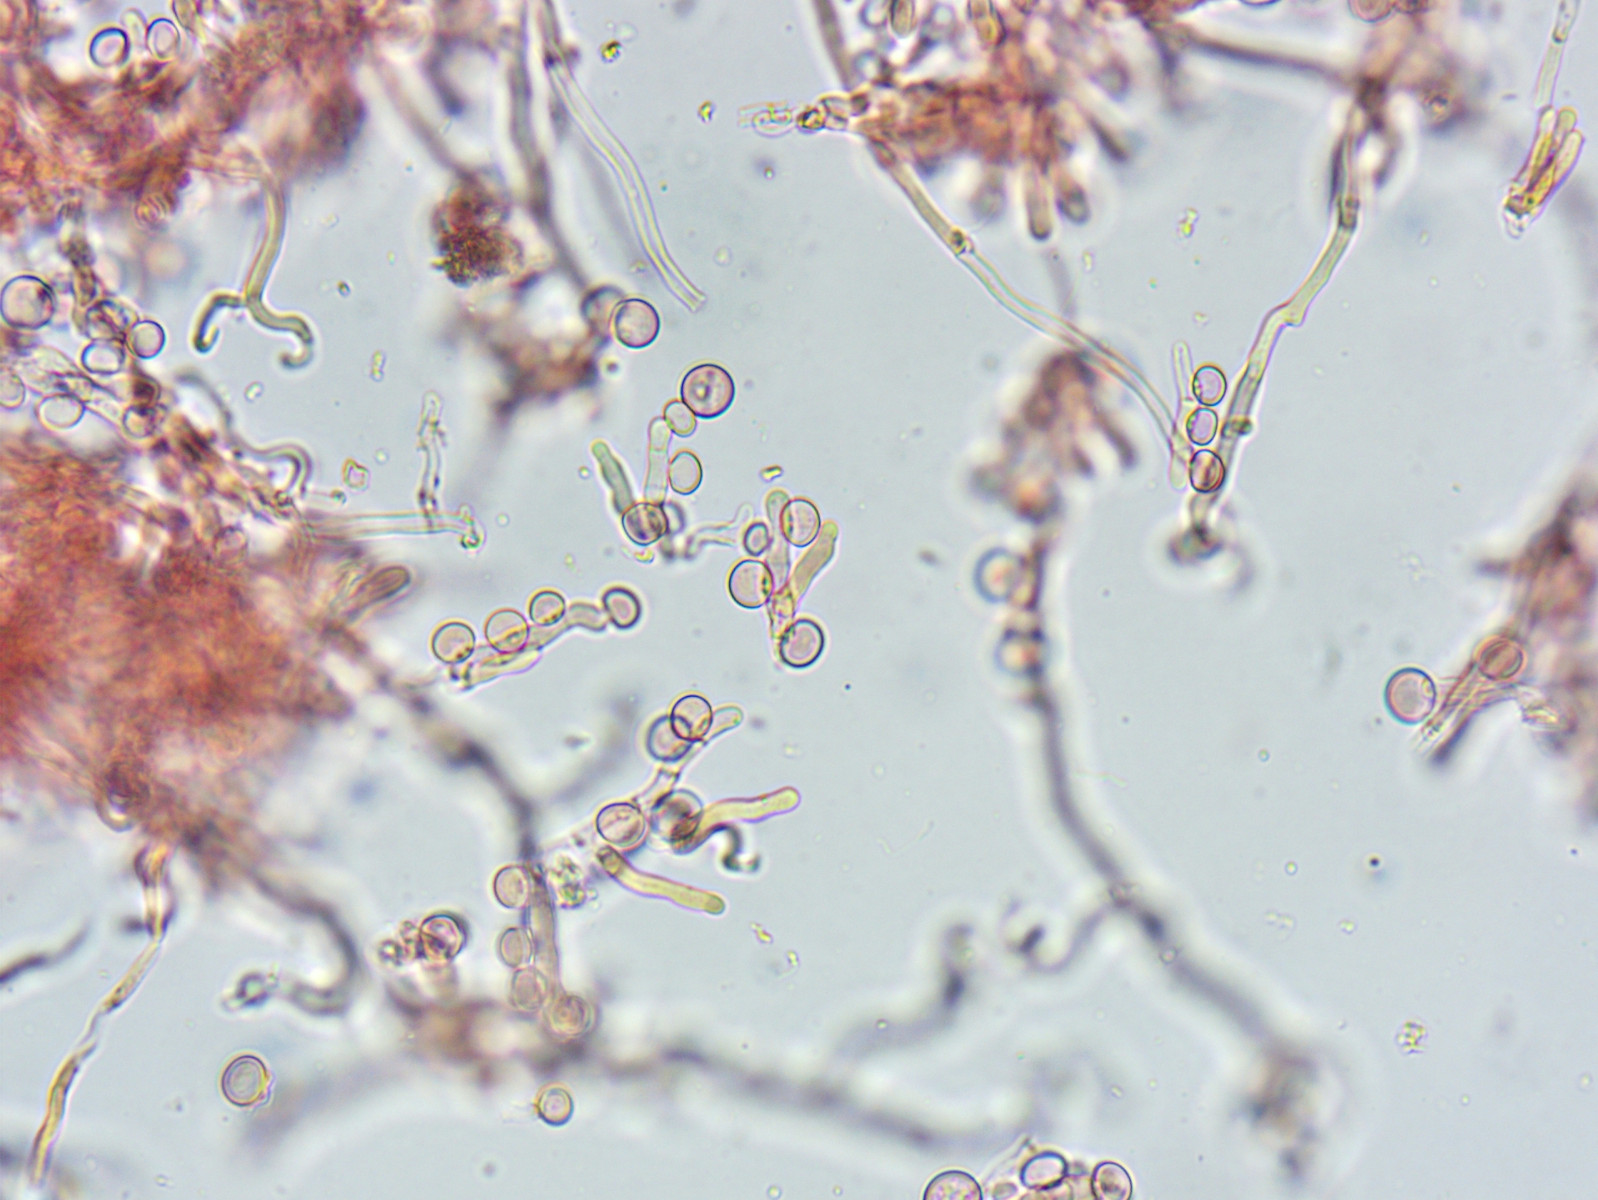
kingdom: Fungi
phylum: Basidiomycota
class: Atractiellomycetes
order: Atractiellales
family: Phleogenaceae
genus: Phleogena
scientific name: Phleogena faginea
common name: pudderkølle
